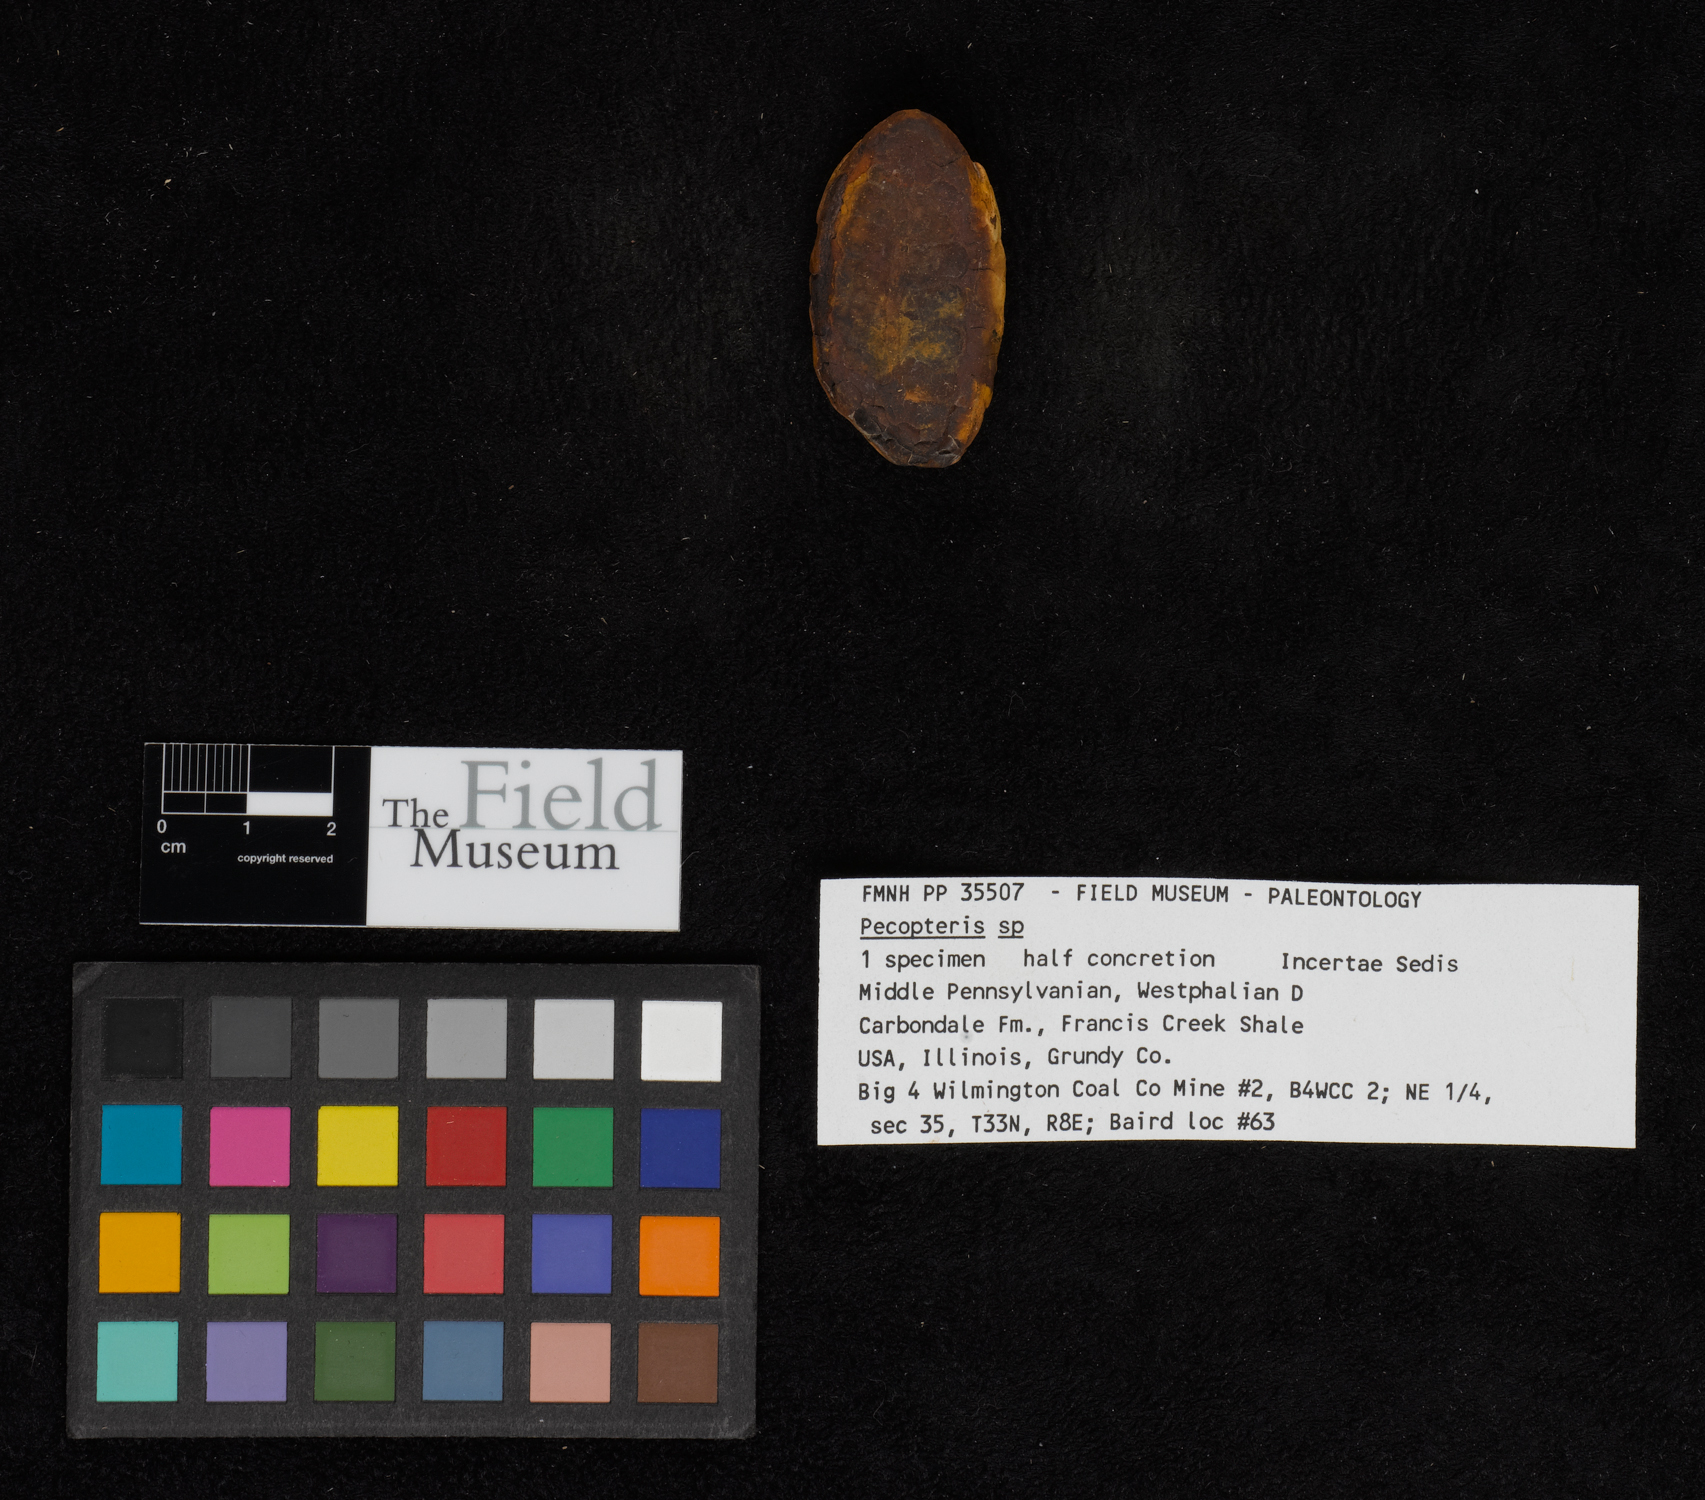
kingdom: Plantae
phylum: Tracheophyta
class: Polypodiopsida
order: Marattiales
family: Asterothecaceae
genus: Pecopteris
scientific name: Pecopteris
